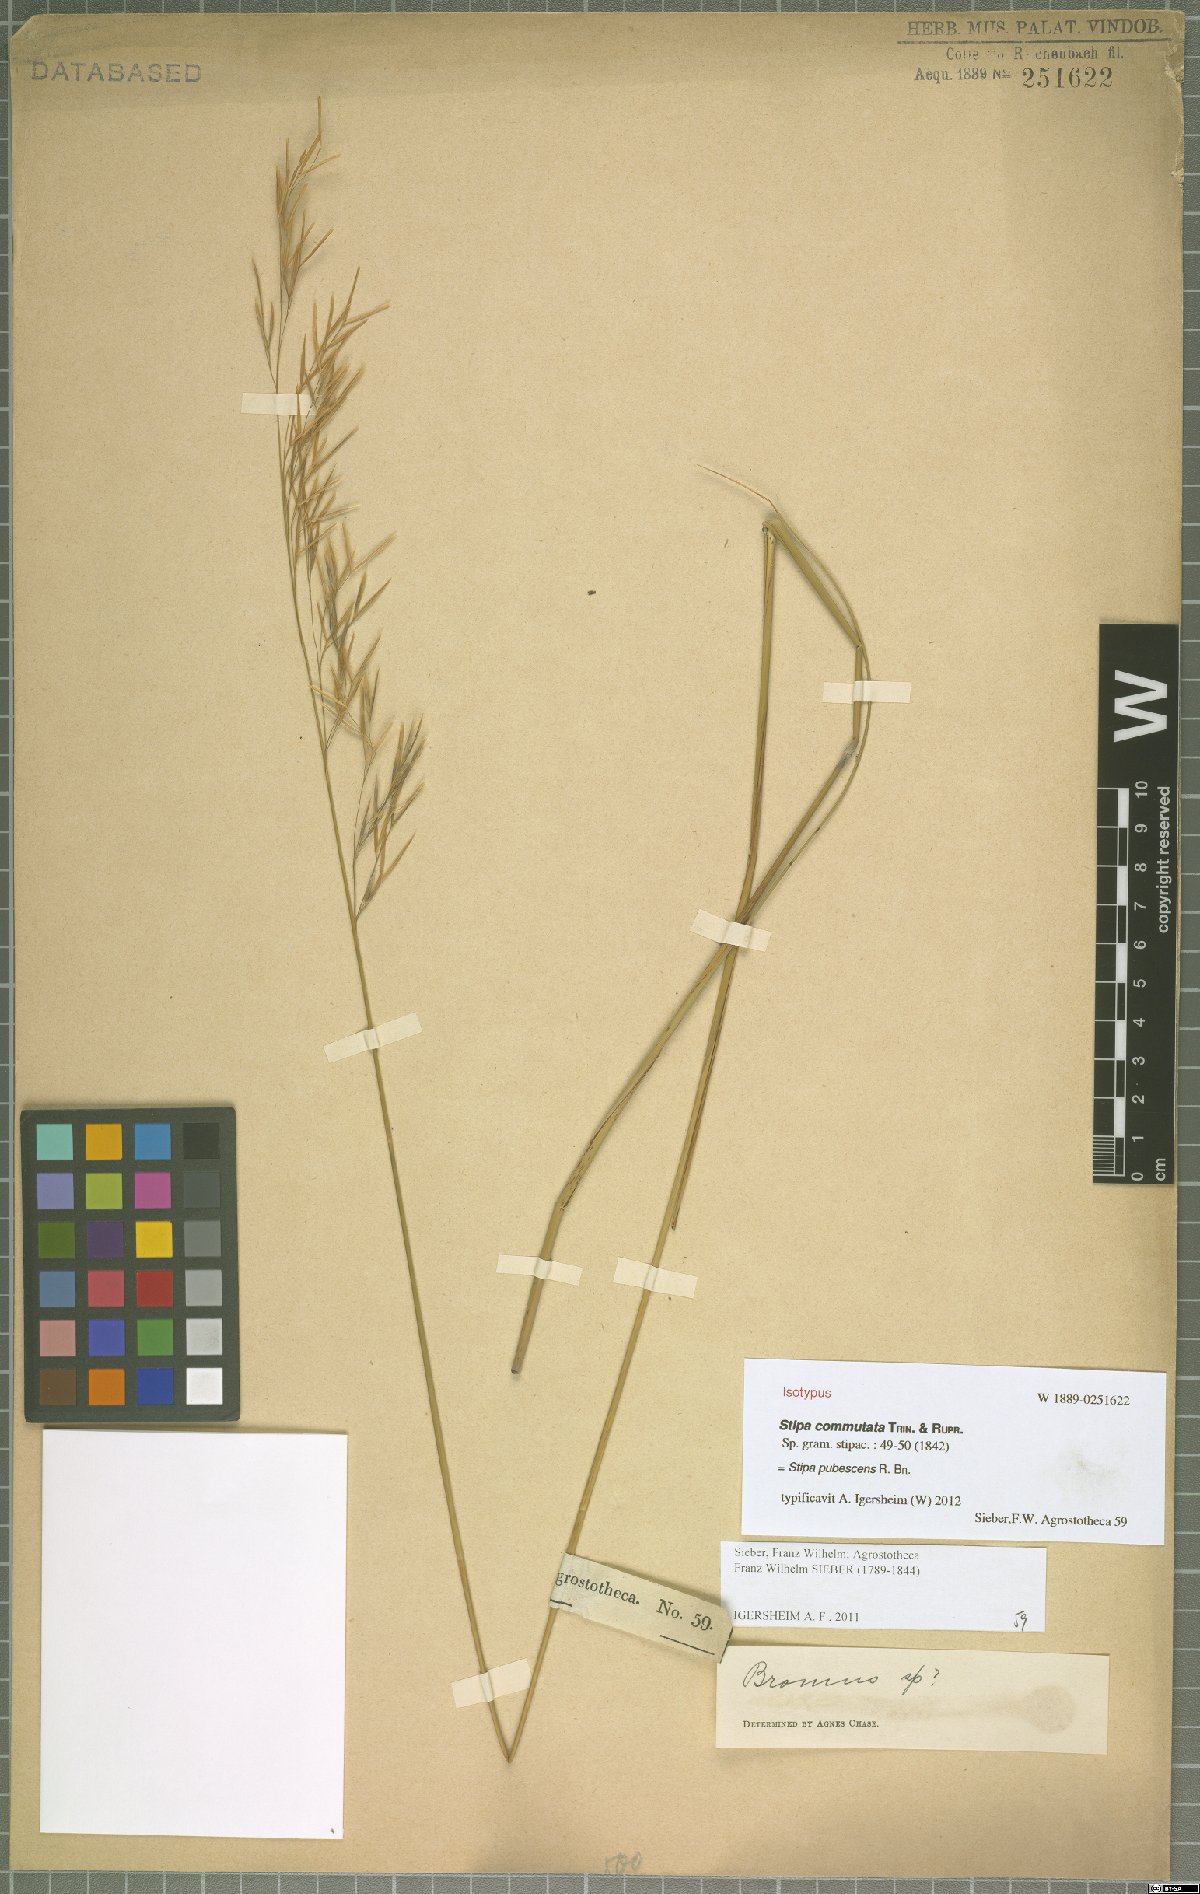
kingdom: Plantae
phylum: Tracheophyta
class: Liliopsida
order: Poales
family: Poaceae
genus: Austrostipa
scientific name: Austrostipa pubescens
